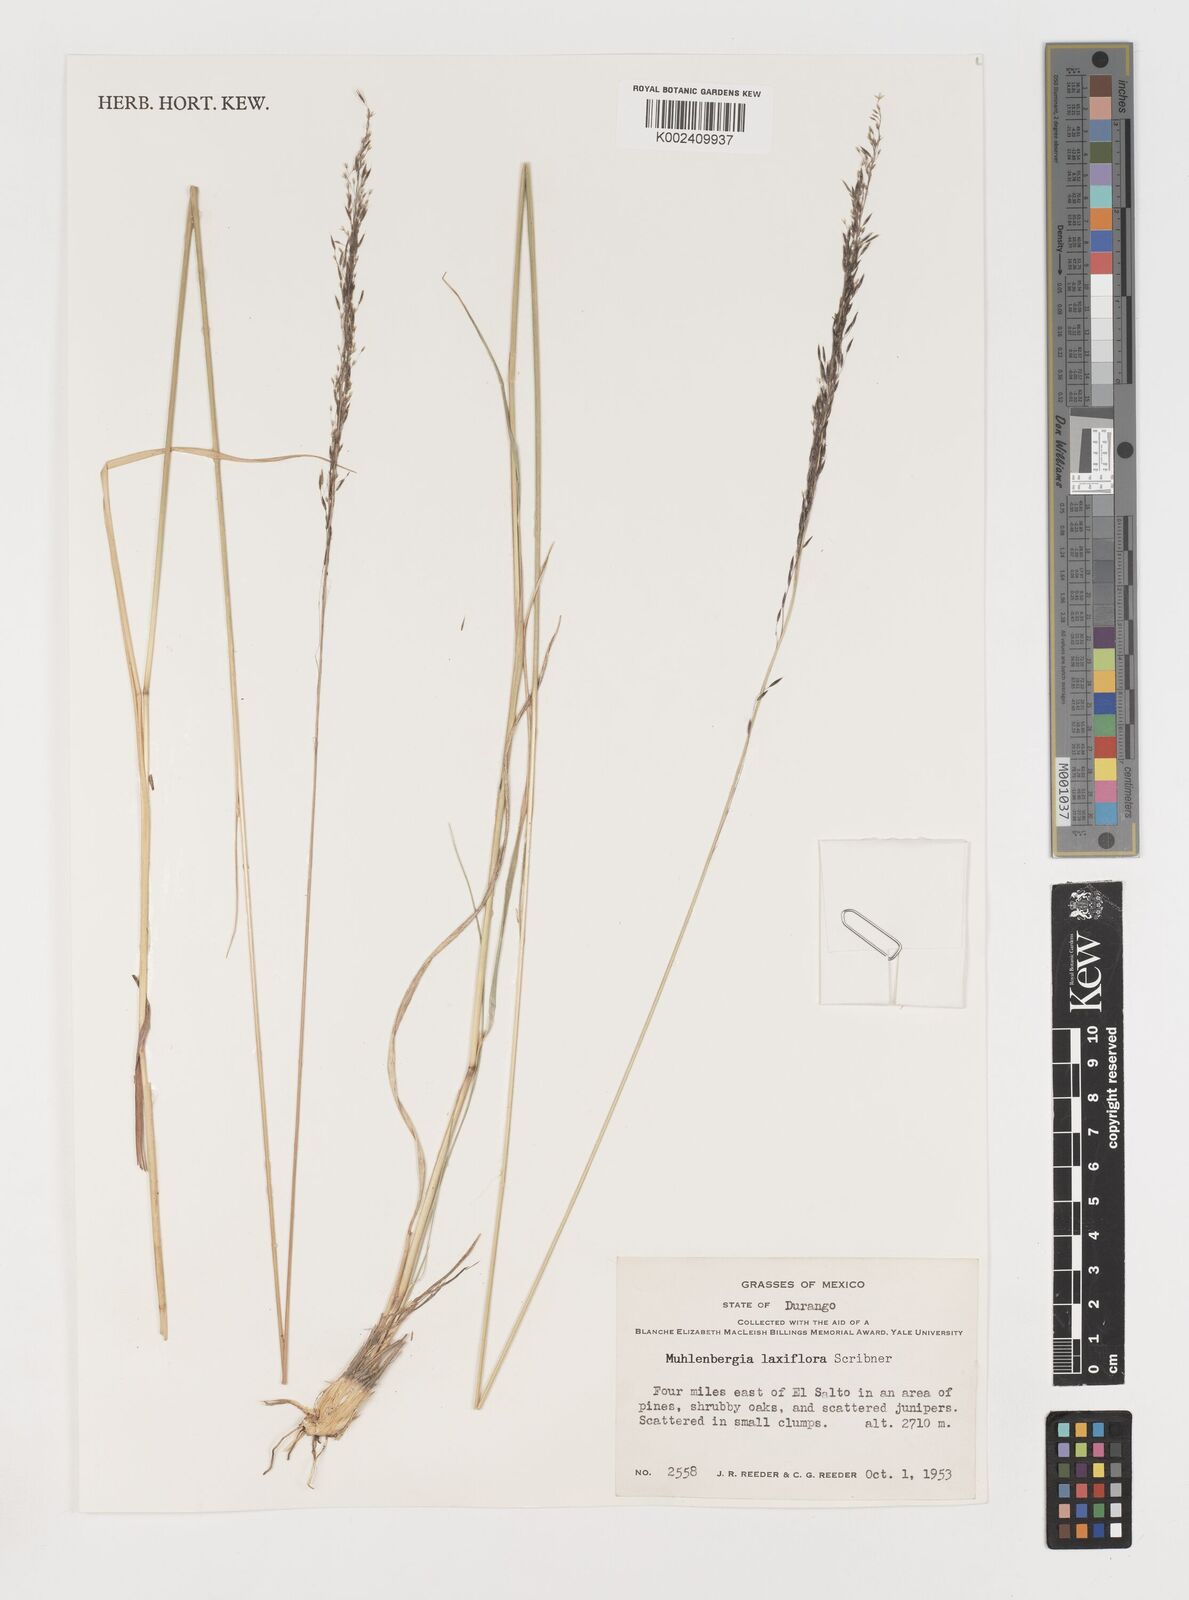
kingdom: Plantae
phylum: Tracheophyta
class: Liliopsida
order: Poales
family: Poaceae
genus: Muhlenbergia
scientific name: Muhlenbergia mucronata
